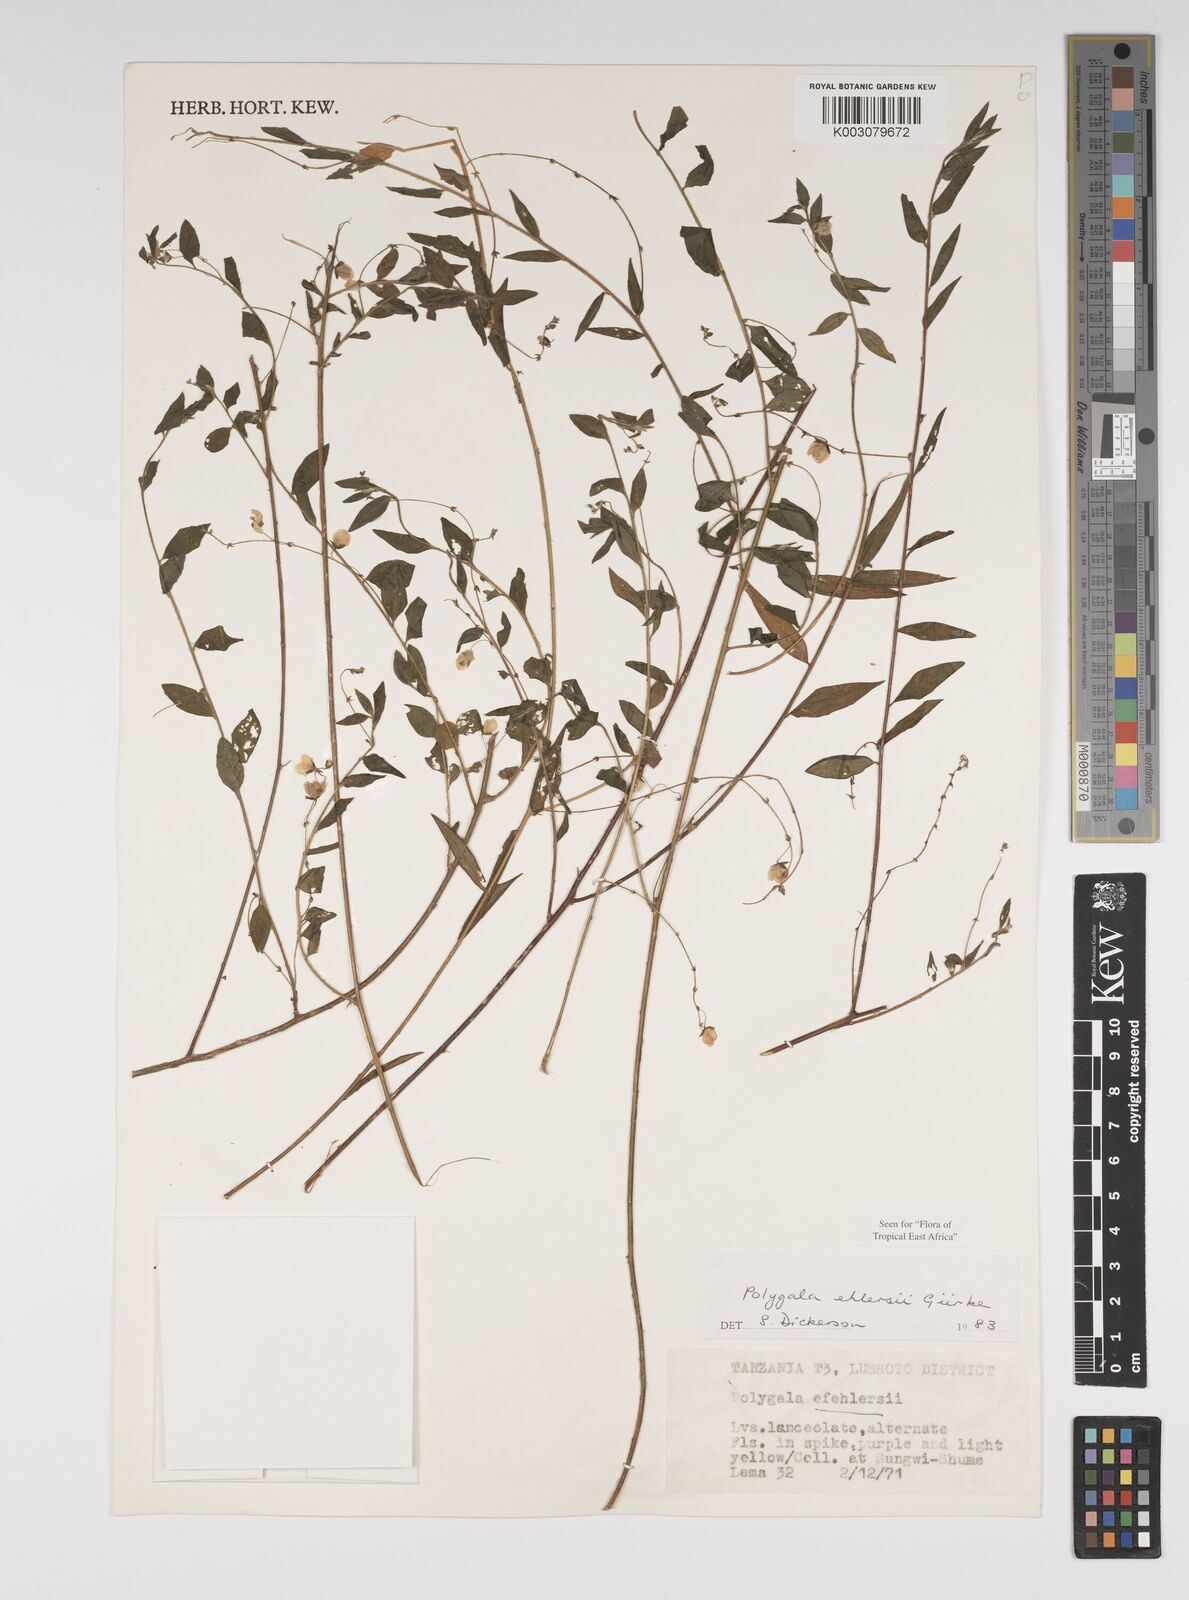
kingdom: Plantae
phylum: Tracheophyta
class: Magnoliopsida
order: Fabales
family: Polygalaceae
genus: Polygala
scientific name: Polygala ehlersii
